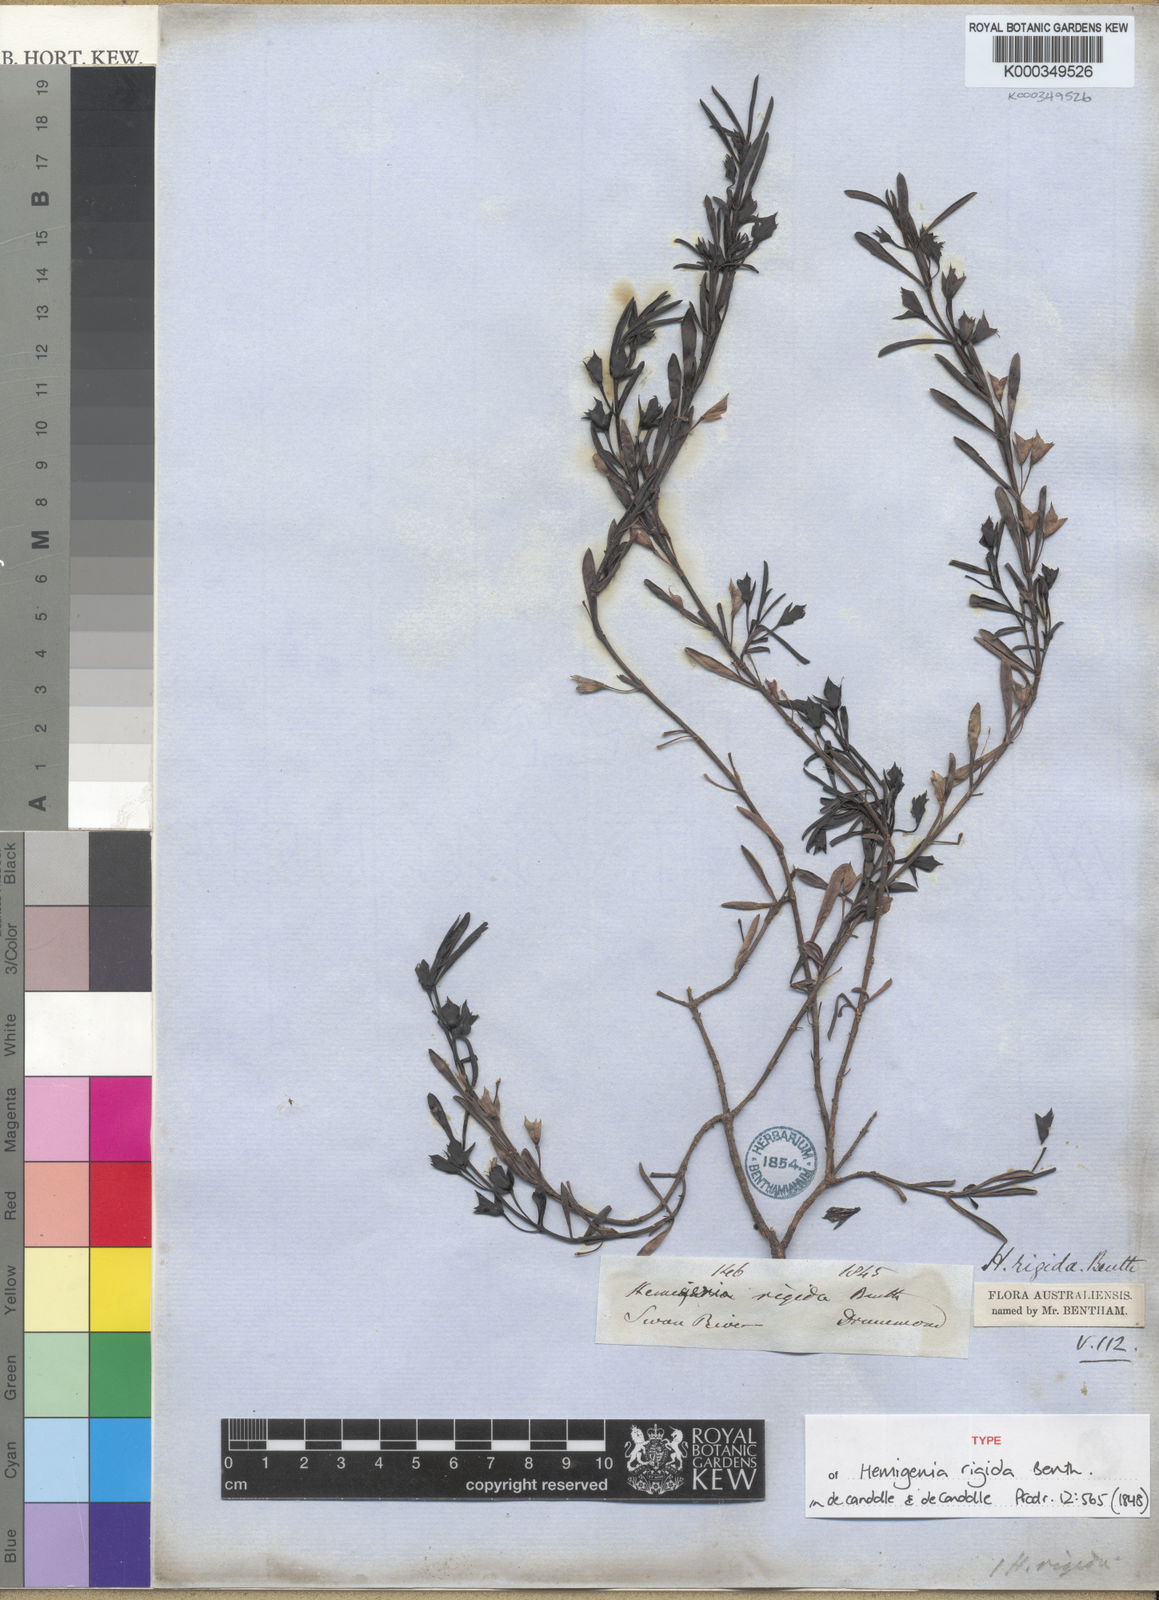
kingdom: Plantae
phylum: Tracheophyta
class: Magnoliopsida
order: Lamiales
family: Lamiaceae
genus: Hemigenia
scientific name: Hemigenia rigida
